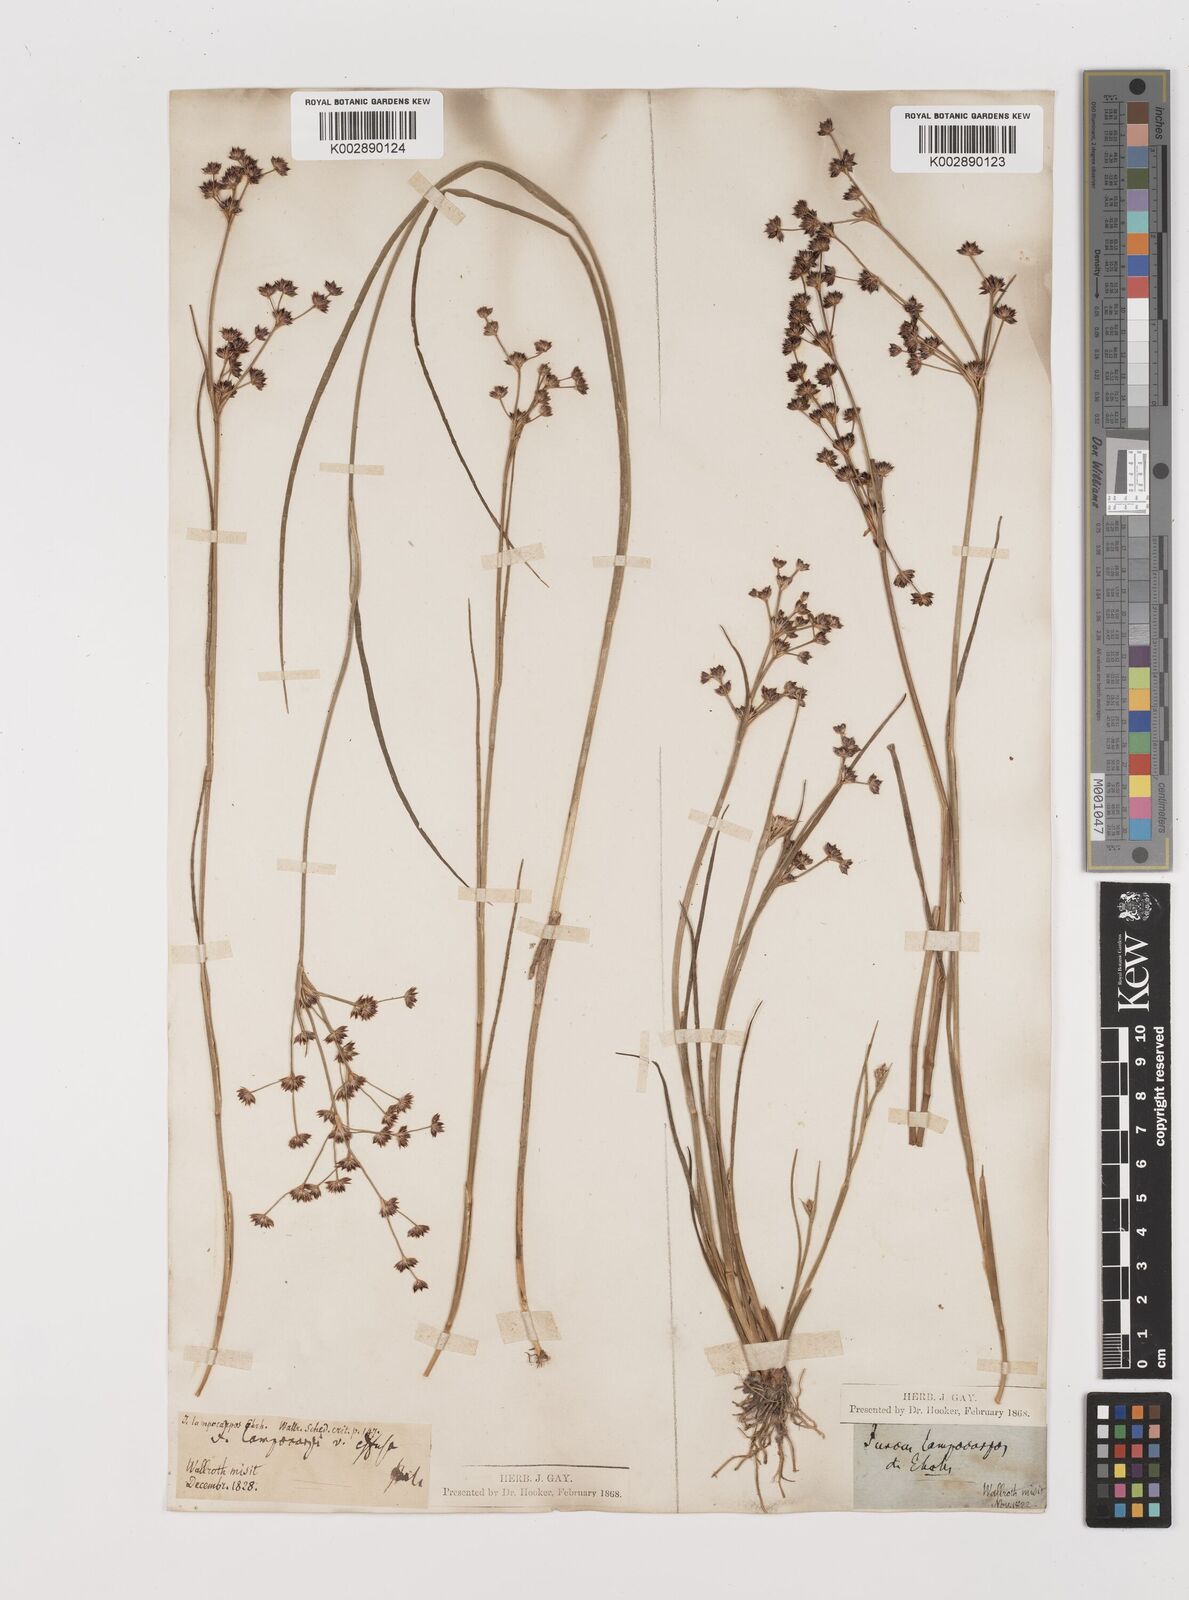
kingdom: Plantae
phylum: Tracheophyta
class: Liliopsida
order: Poales
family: Juncaceae
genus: Juncus
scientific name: Juncus articulatus
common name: Jointed rush
